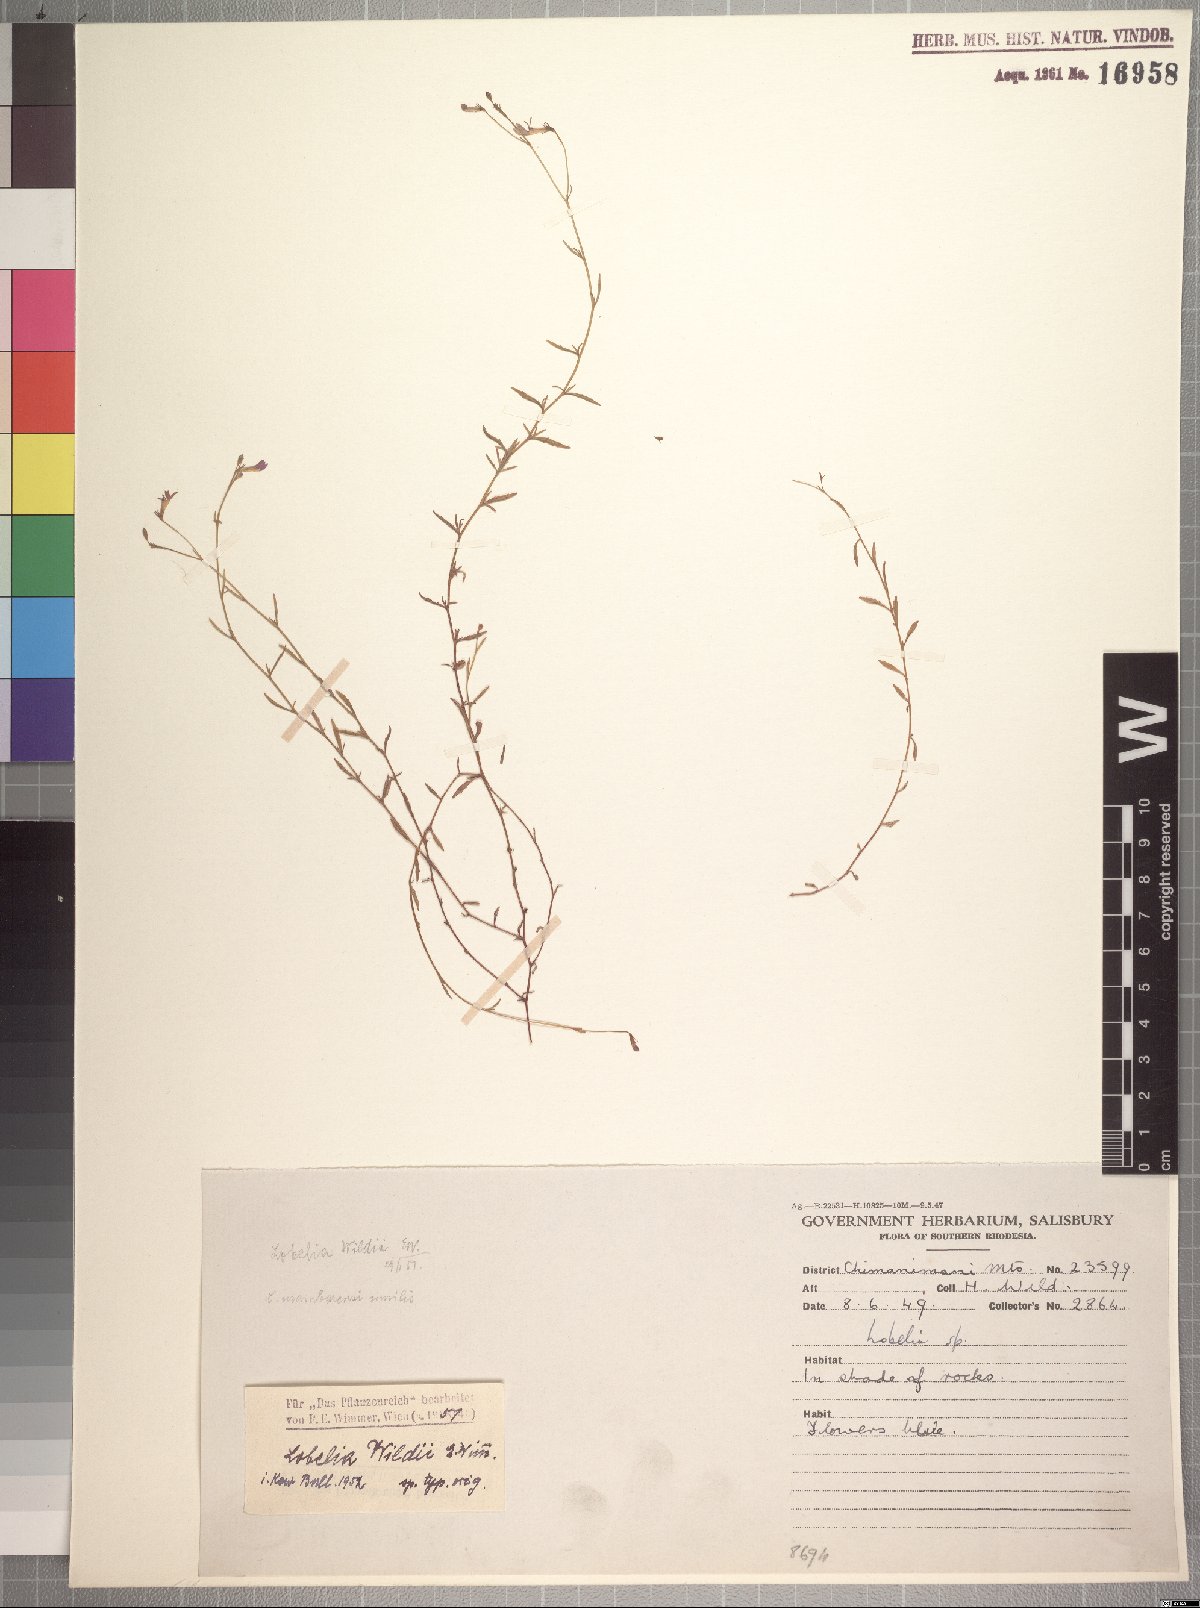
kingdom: Plantae
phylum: Tracheophyta
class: Magnoliopsida
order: Asterales
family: Campanulaceae
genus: Lobelia
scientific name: Lobelia erinus
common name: Edging lobelia
